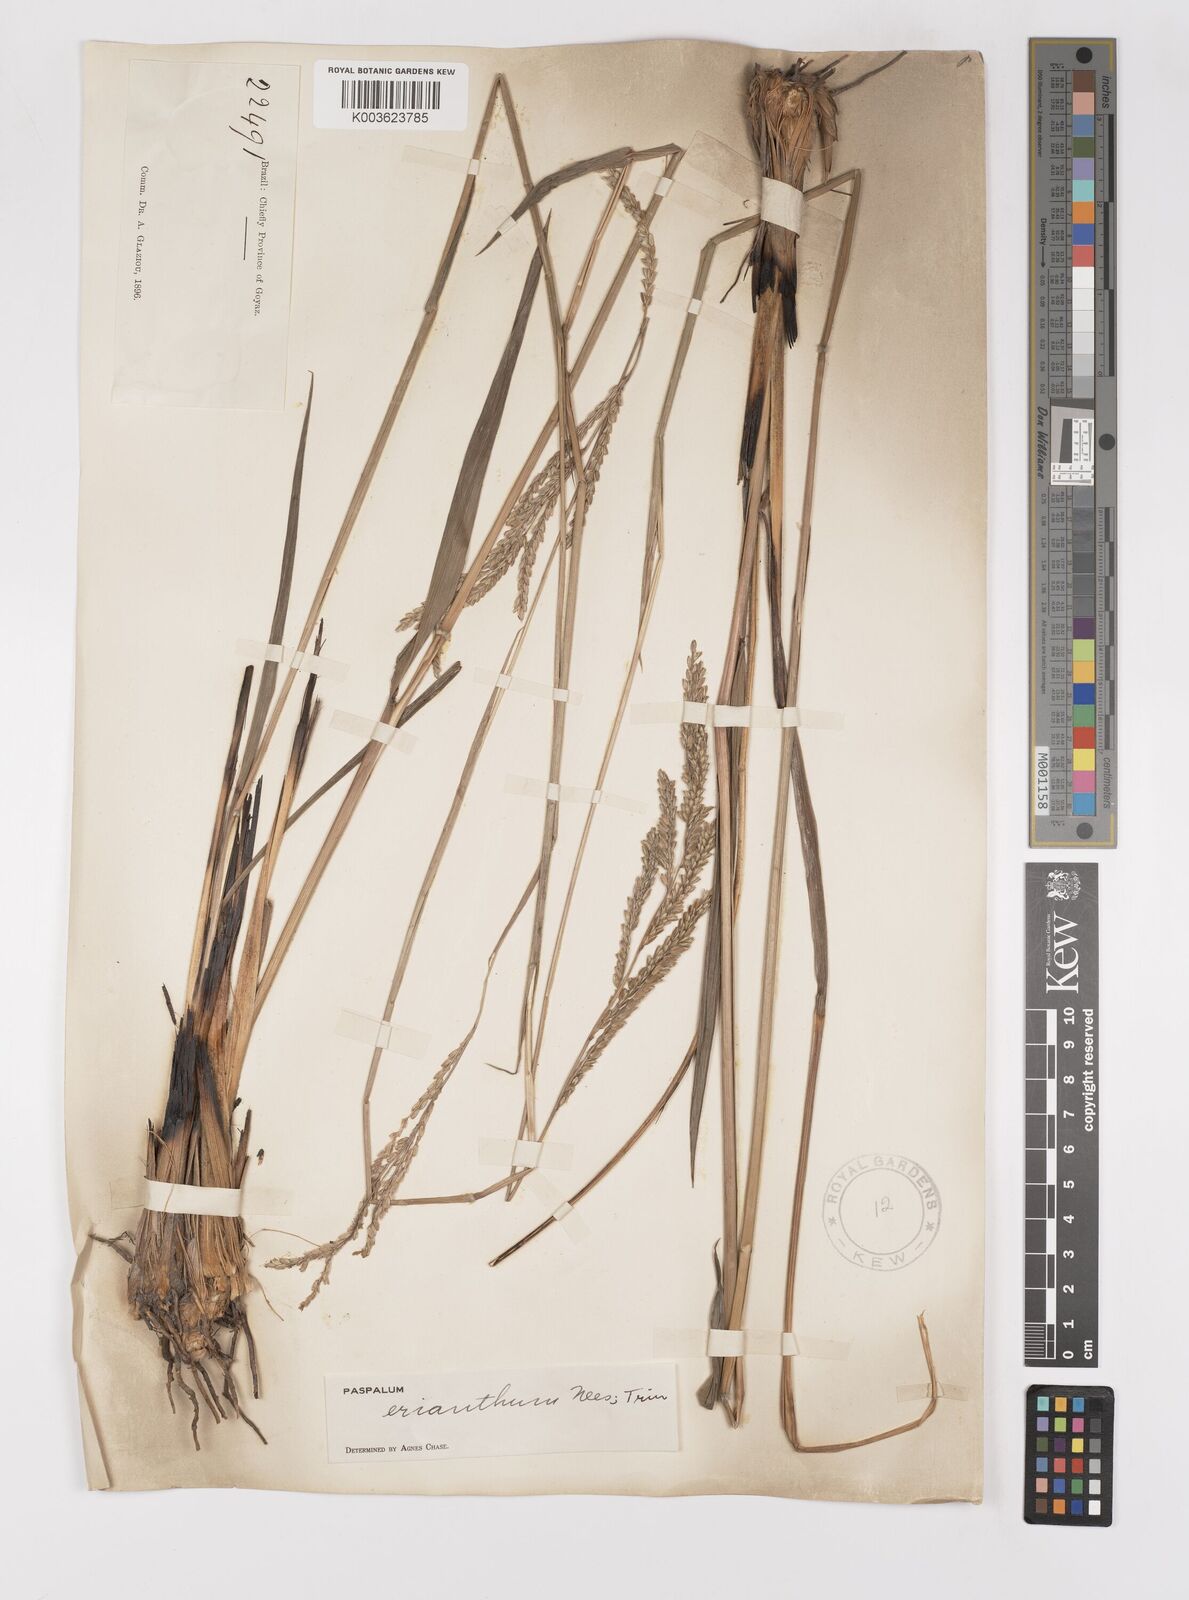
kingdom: Plantae
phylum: Tracheophyta
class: Liliopsida
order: Poales
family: Poaceae
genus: Paspalum
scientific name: Paspalum erianthum
